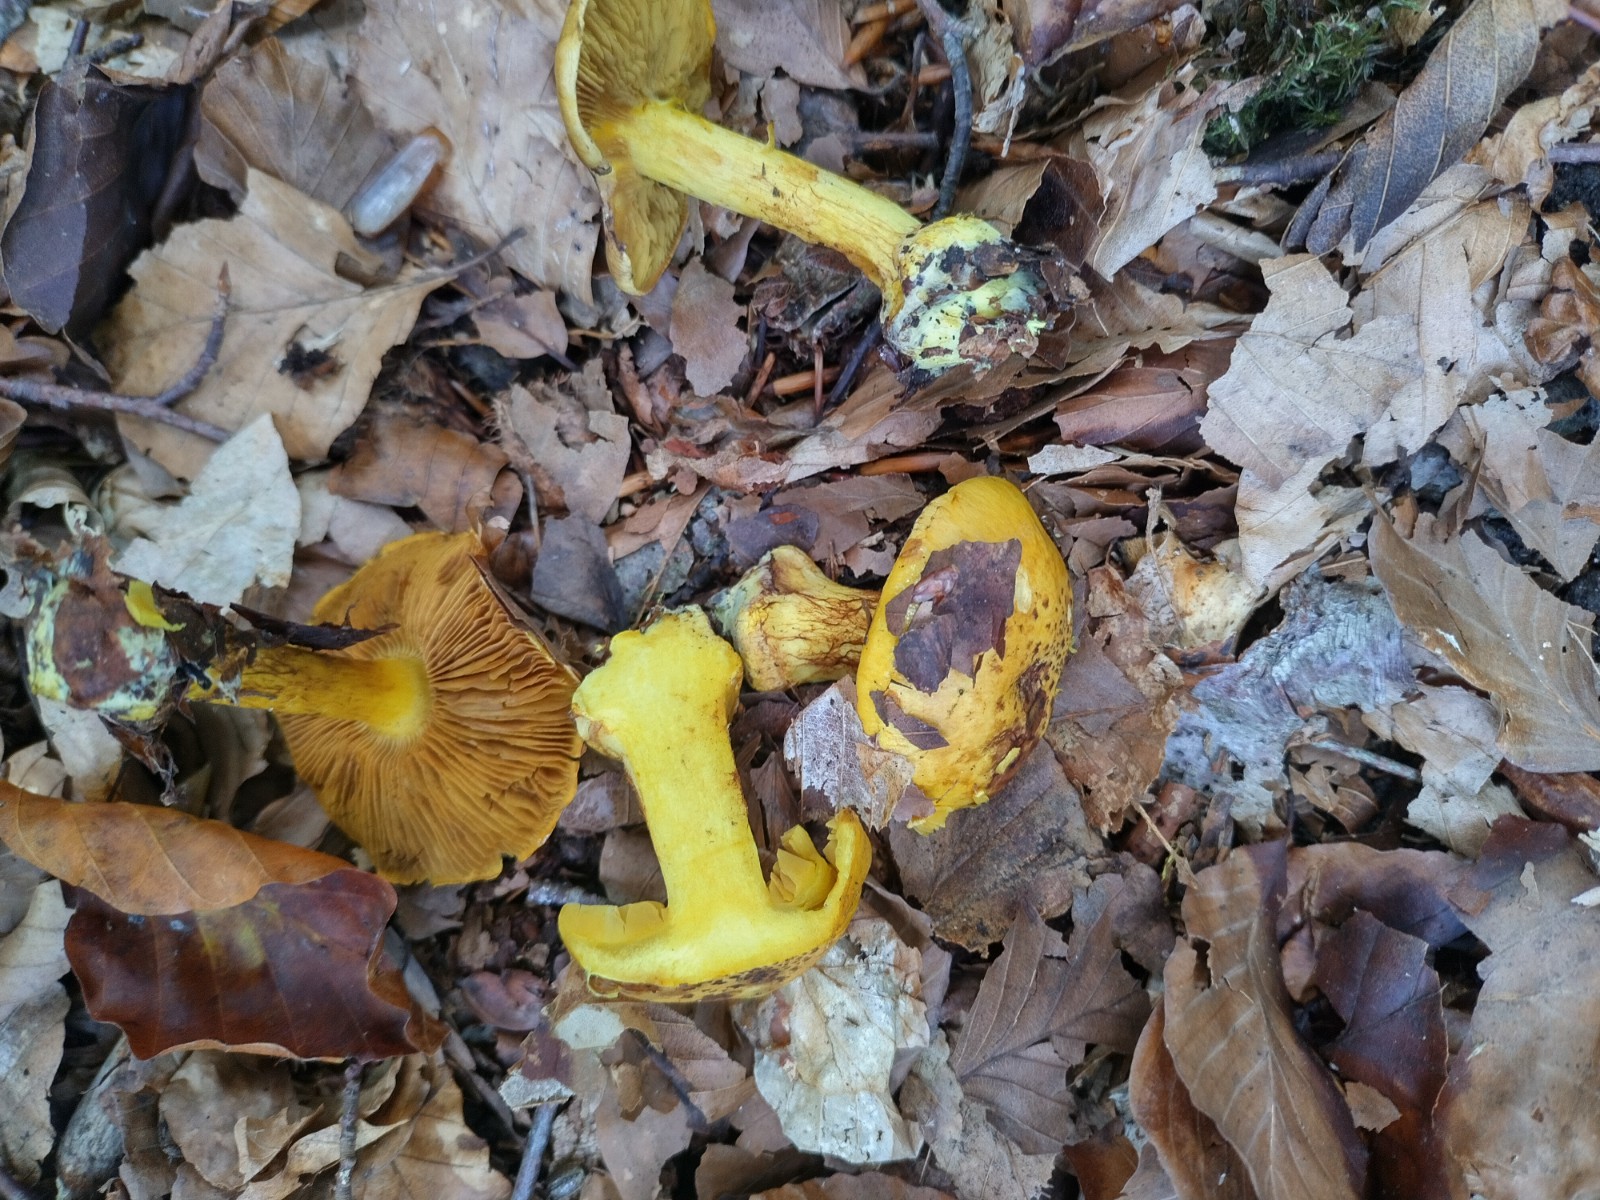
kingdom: Fungi
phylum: Basidiomycota
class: Agaricomycetes
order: Agaricales
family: Cortinariaceae
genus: Calonarius
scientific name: Calonarius splendens
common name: sirene-slørhat
